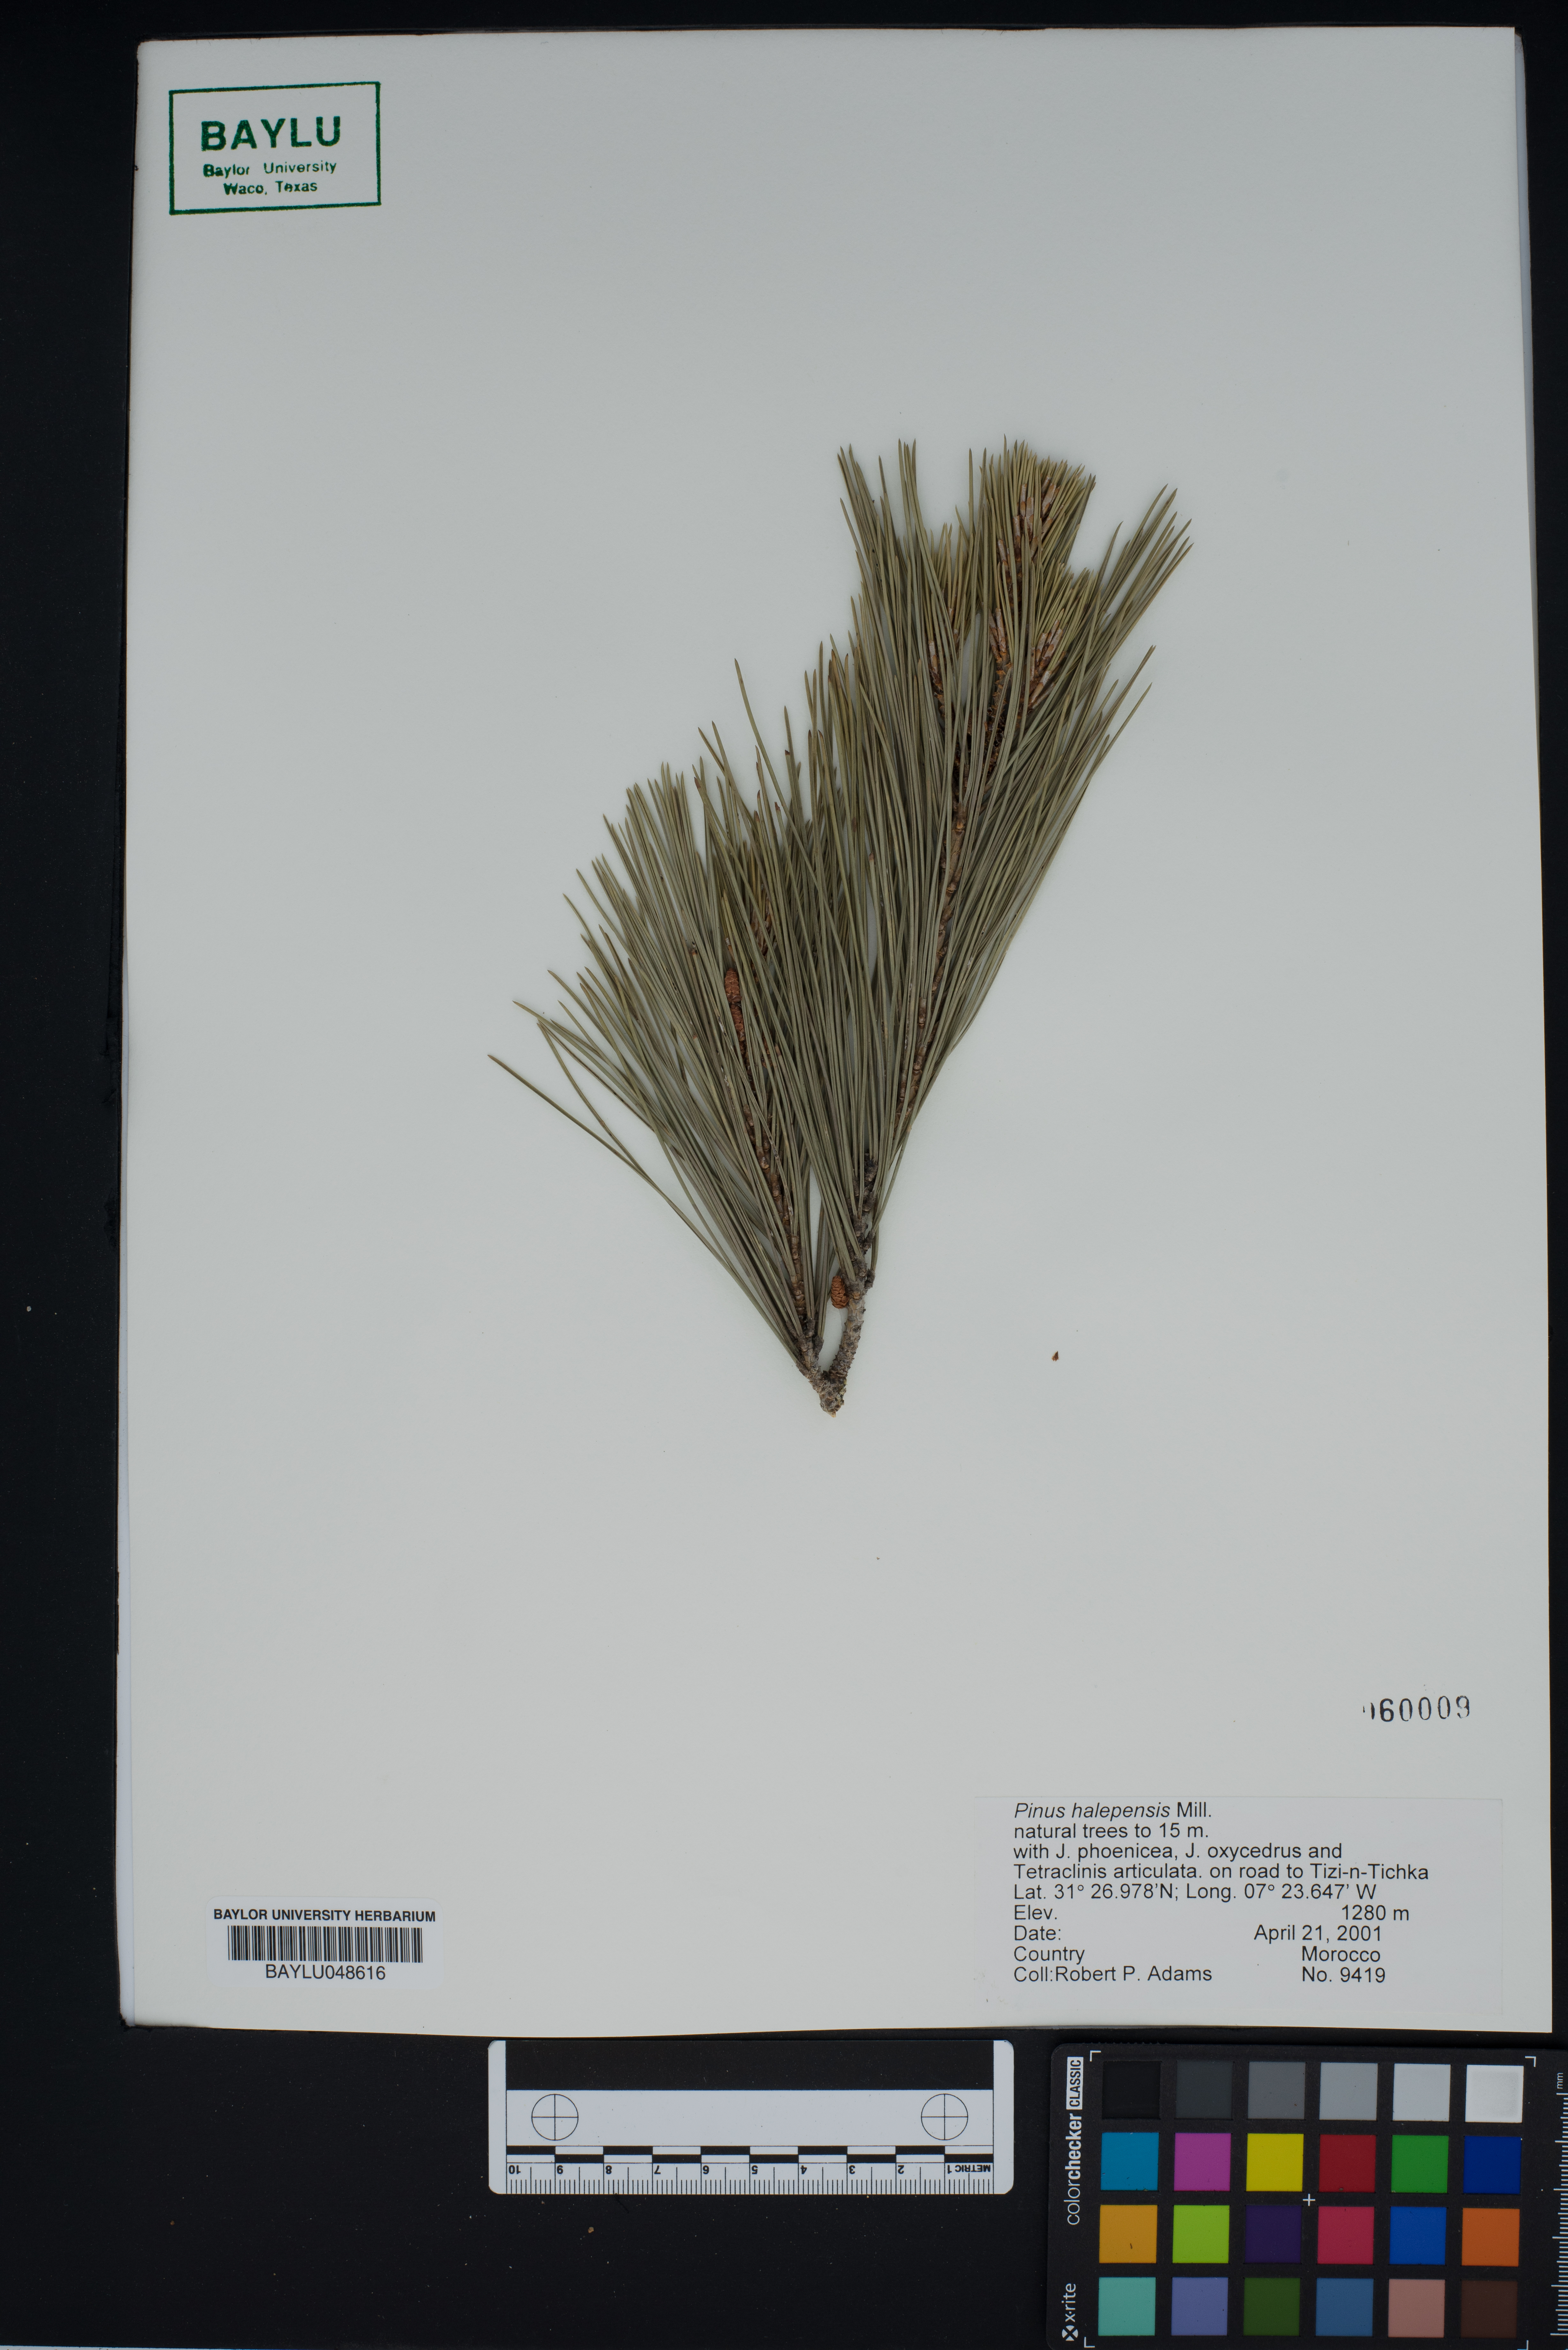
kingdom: Plantae
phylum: Tracheophyta
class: Pinopsida
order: Pinales
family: Pinaceae
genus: Pinus
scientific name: Pinus halepensis
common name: Aleppo pine
